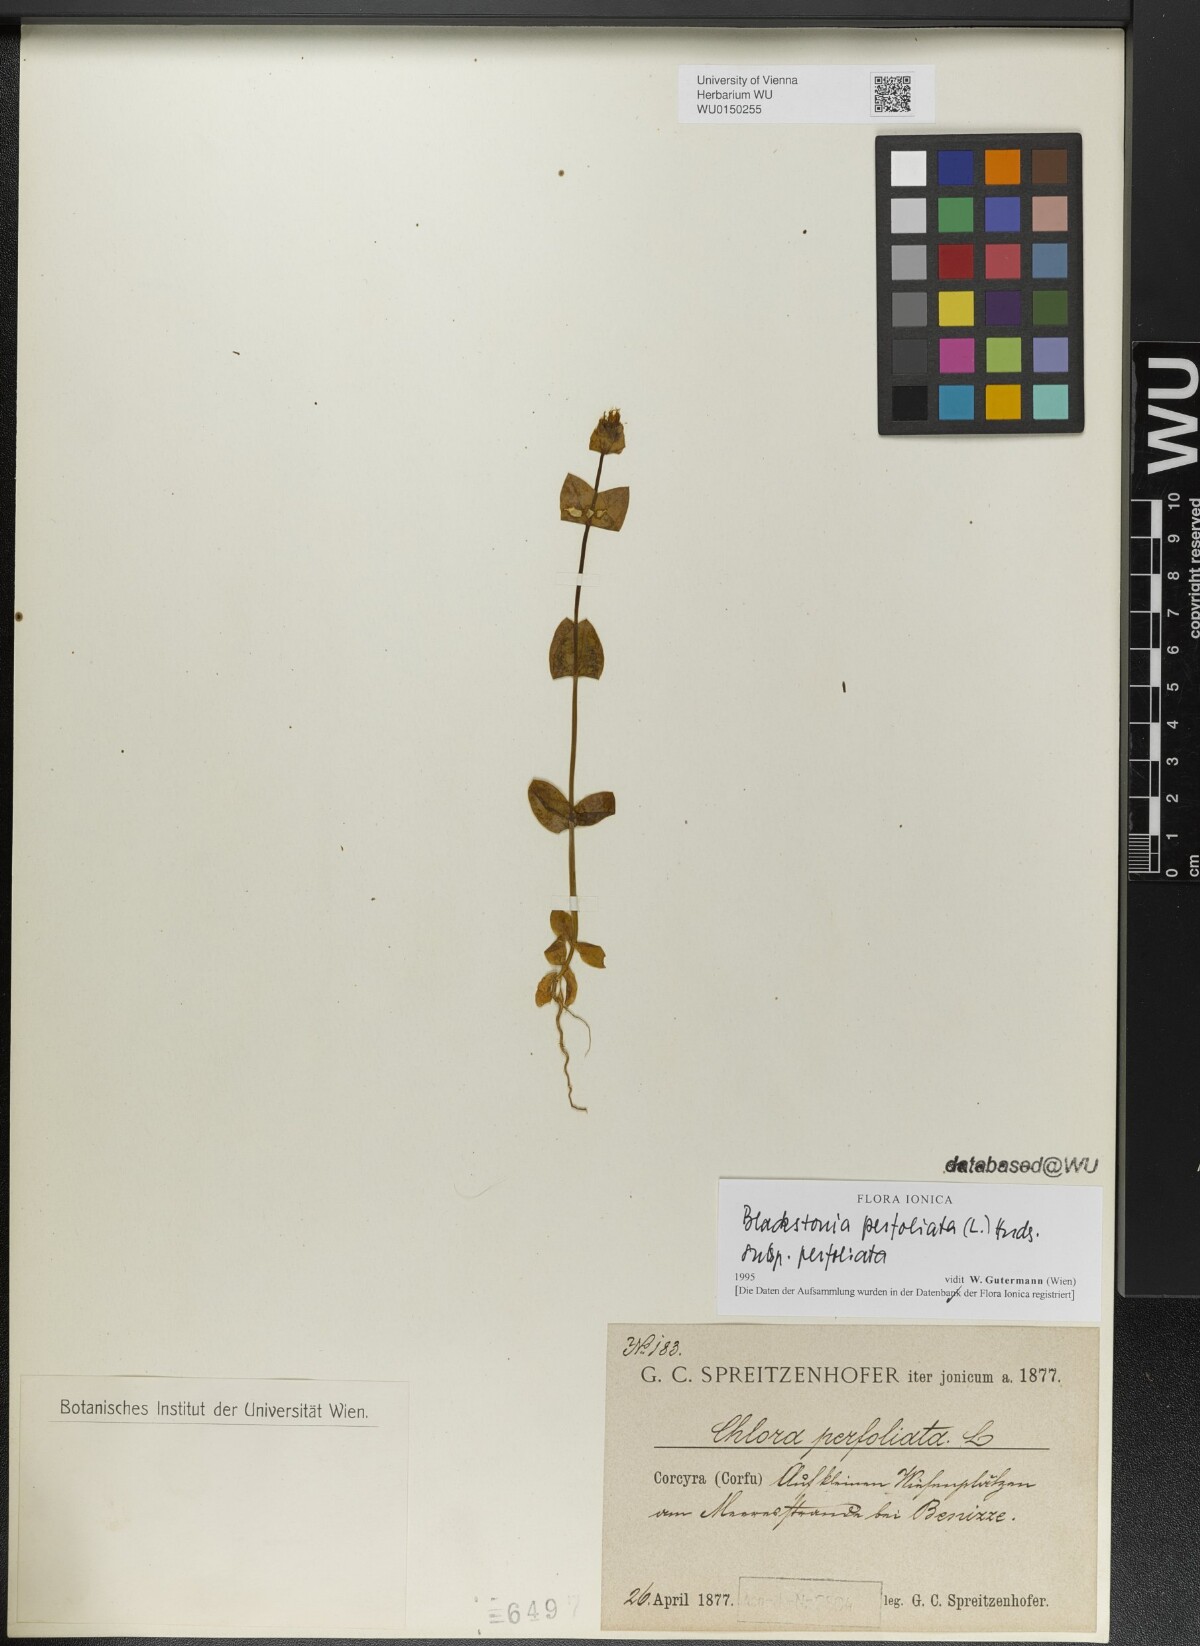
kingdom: Plantae
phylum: Tracheophyta
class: Magnoliopsida
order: Gentianales
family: Gentianaceae
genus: Blackstonia
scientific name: Blackstonia perfoliata
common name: Yellow-wort
